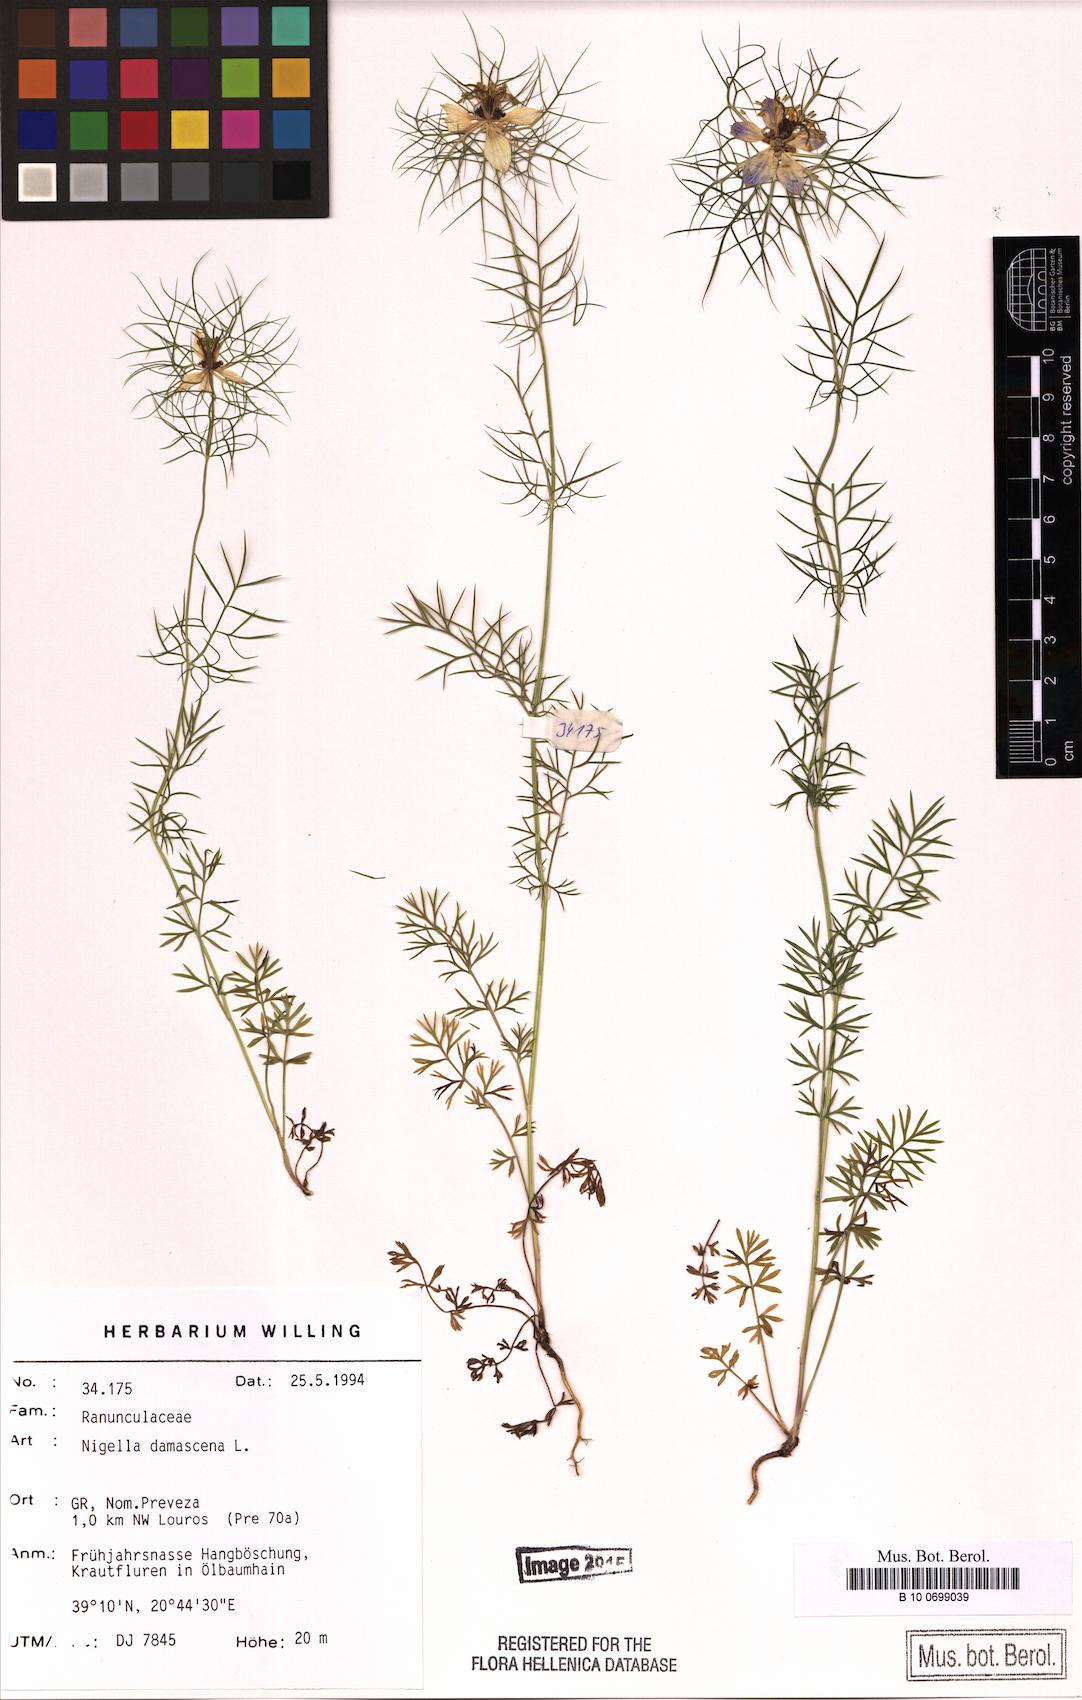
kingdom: Plantae
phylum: Tracheophyta
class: Magnoliopsida
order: Ranunculales
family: Ranunculaceae
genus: Nigella
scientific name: Nigella damascena
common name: Love-in-a-mist
